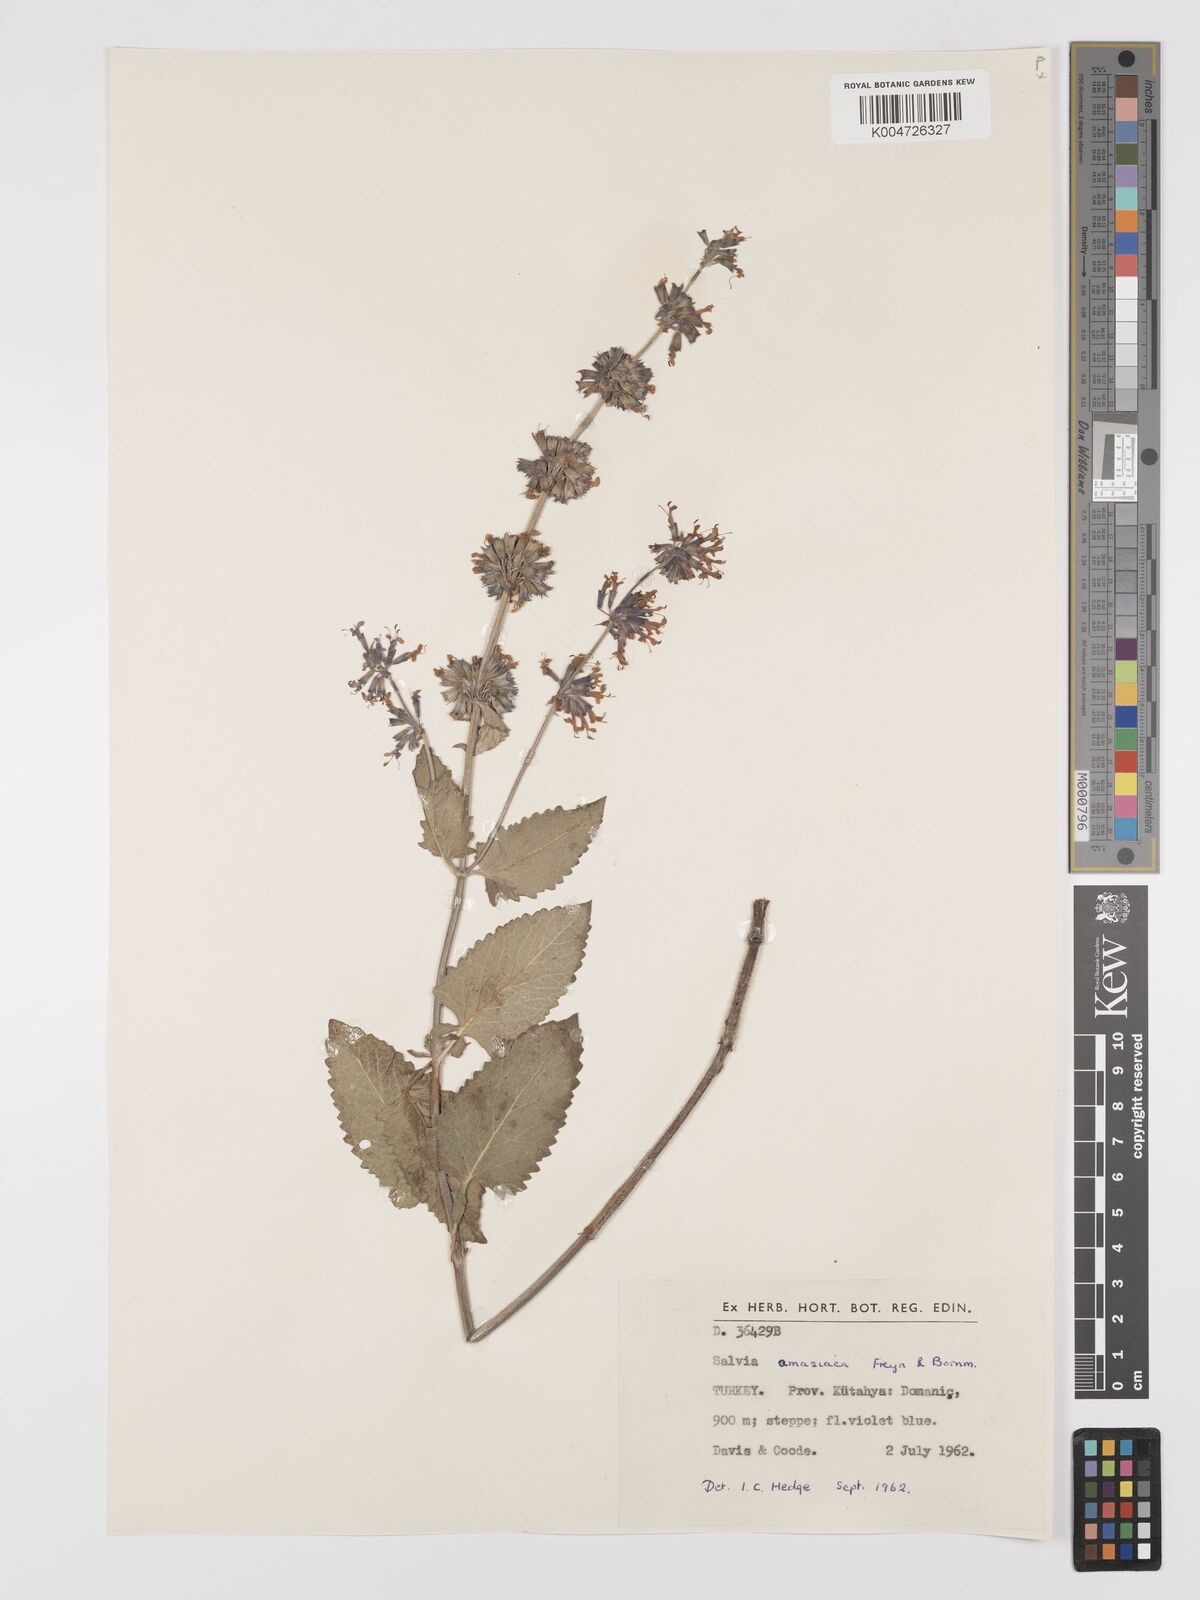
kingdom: Plantae
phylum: Tracheophyta
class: Magnoliopsida
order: Lamiales
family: Lamiaceae
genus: Salvia
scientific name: Salvia verticillata
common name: Whorled clary
